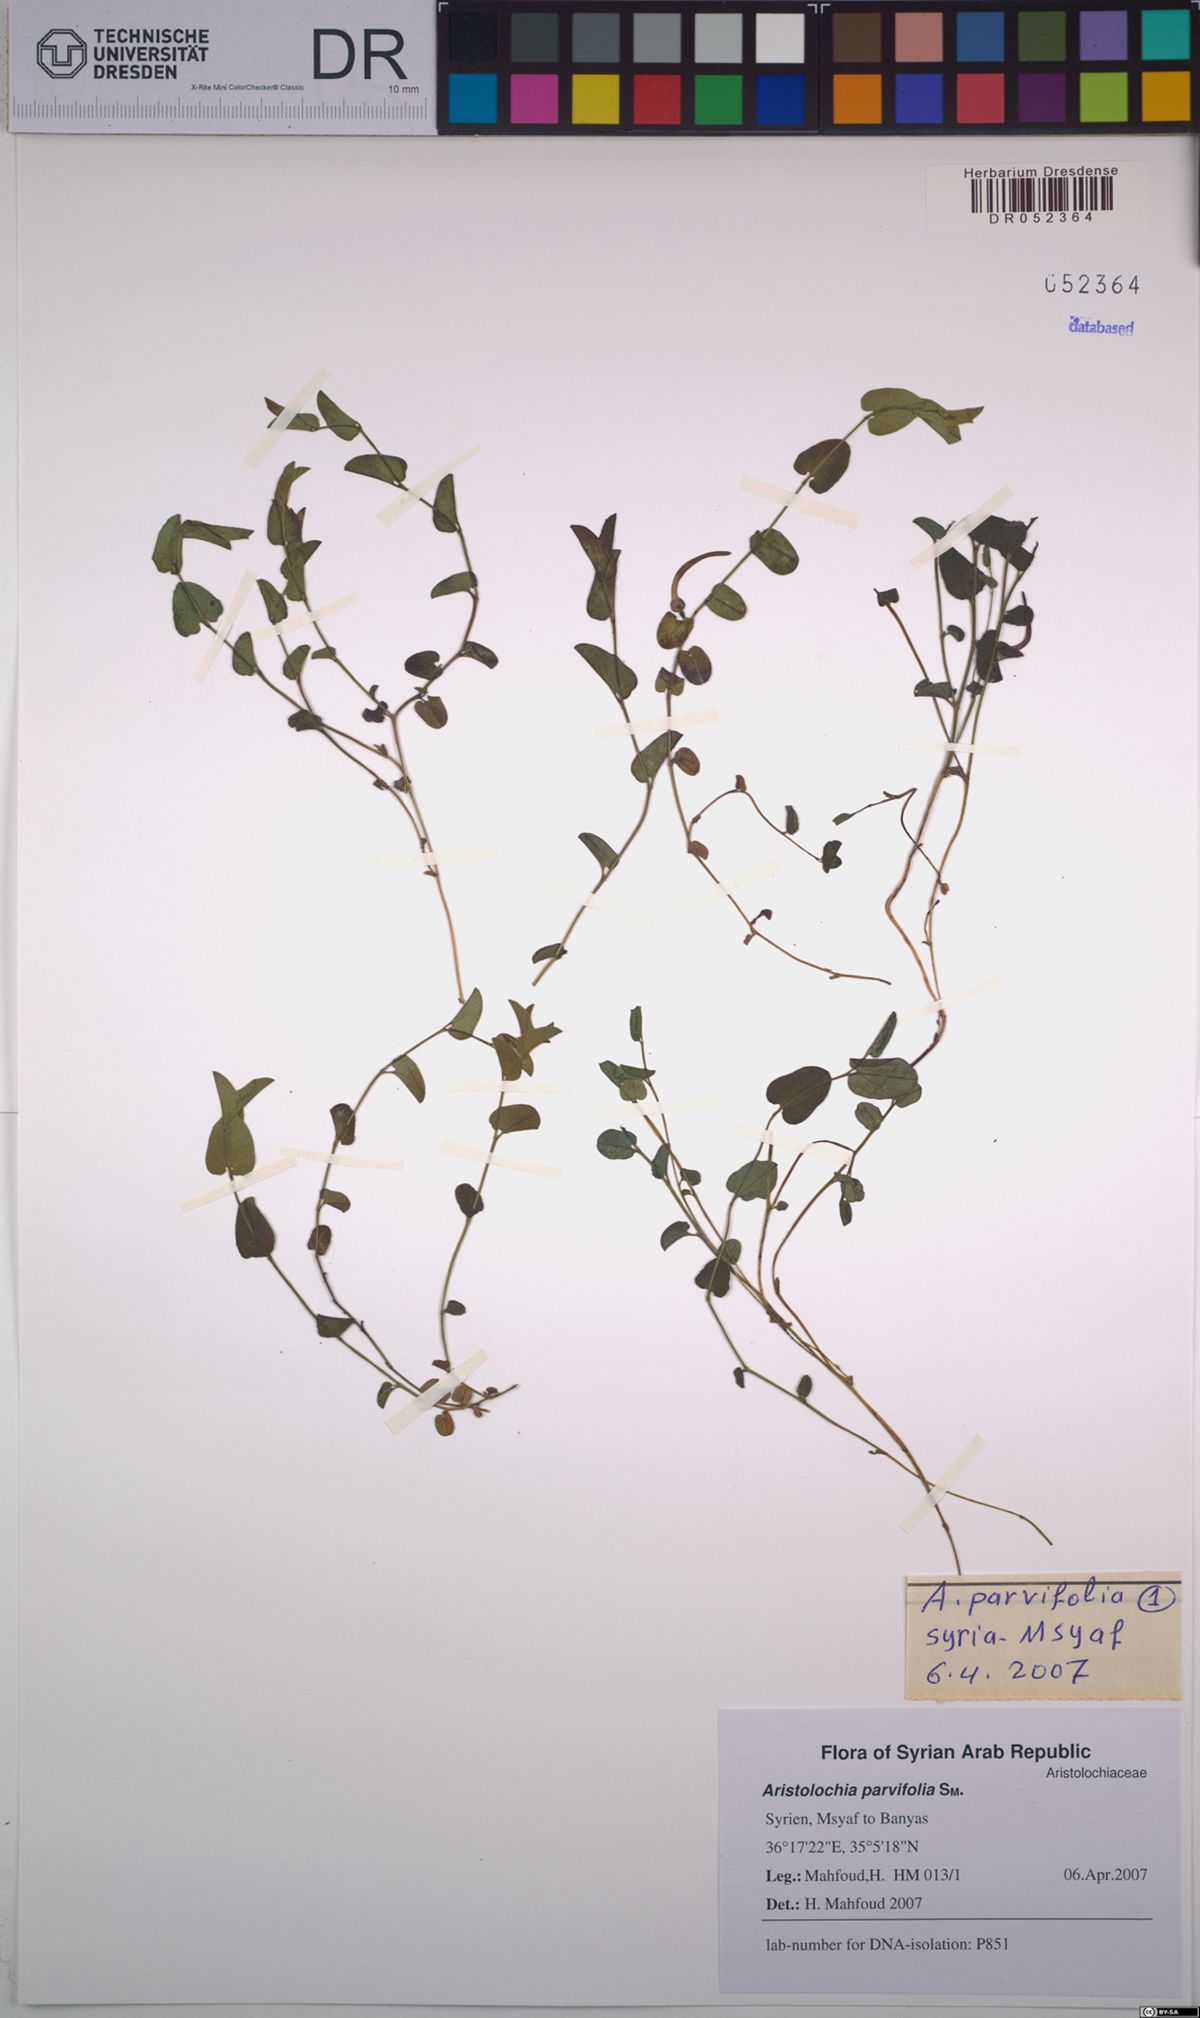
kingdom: Plantae
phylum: Tracheophyta
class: Magnoliopsida
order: Piperales
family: Aristolochiaceae
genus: Aristolochia
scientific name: Aristolochia parvifolia
